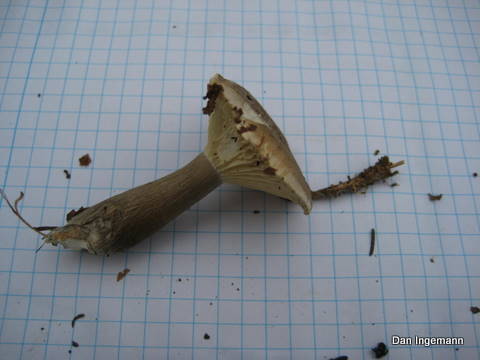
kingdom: Fungi
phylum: Basidiomycota
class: Agaricomycetes
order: Agaricales
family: Hygrophoraceae
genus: Ampulloclitocybe
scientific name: Ampulloclitocybe clavipes
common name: køllefod
